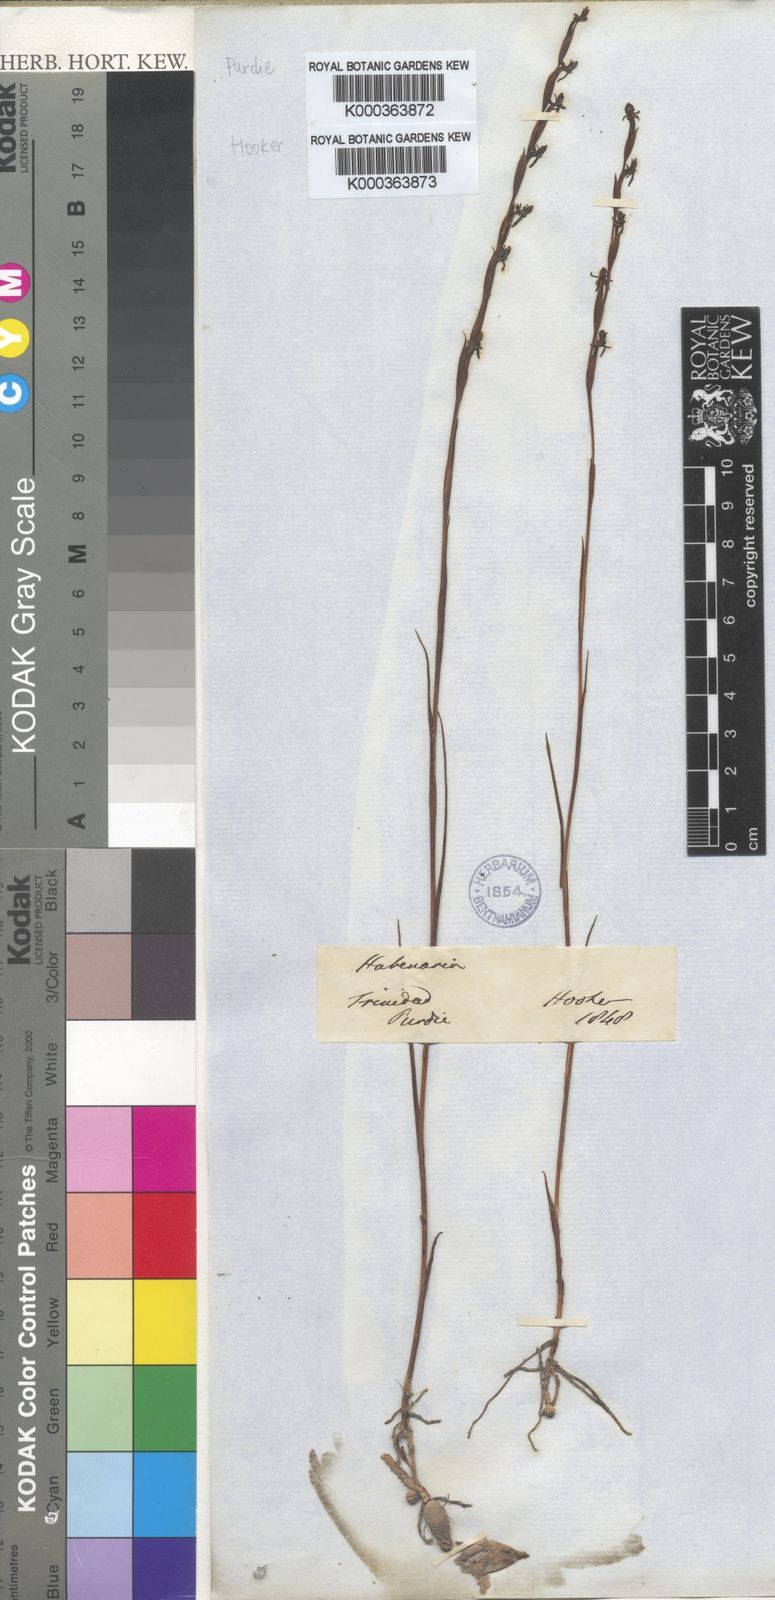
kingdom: Plantae
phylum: Tracheophyta
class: Liliopsida
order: Asparagales
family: Orchidaceae
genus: Habenaria
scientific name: Habenaria leprieurii
